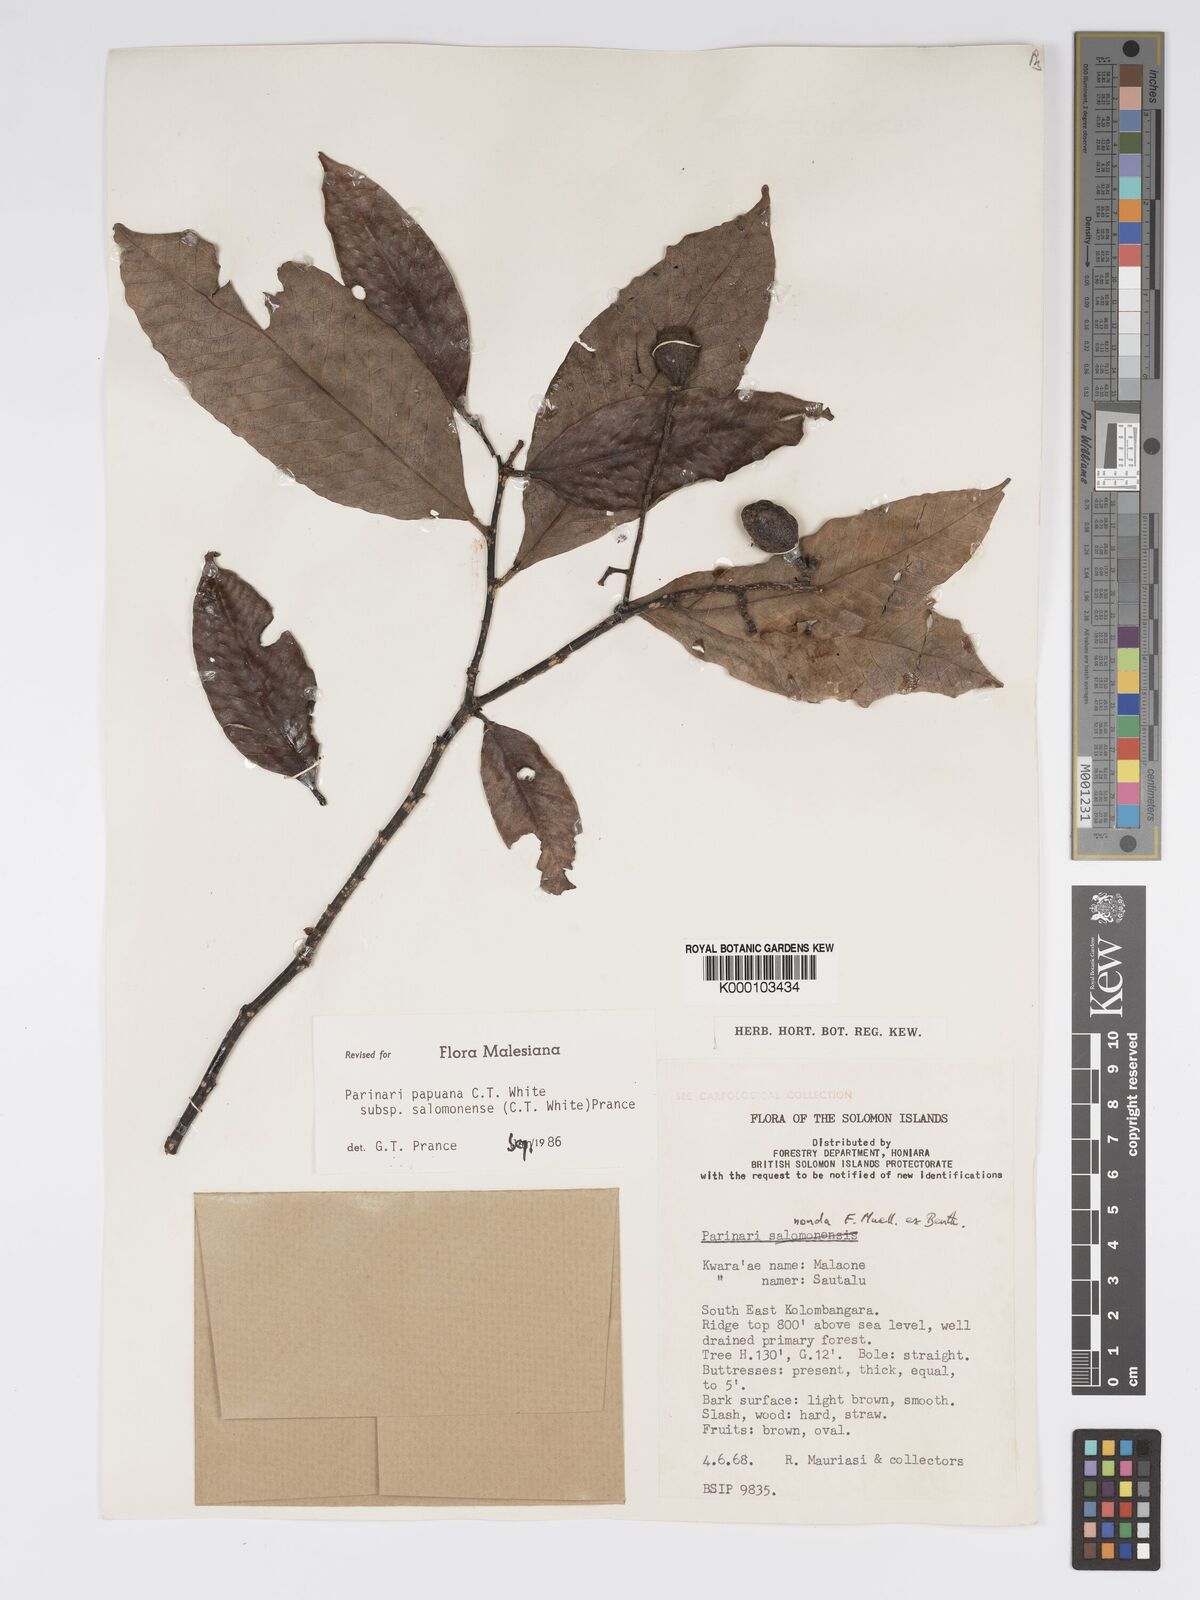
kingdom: Plantae
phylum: Tracheophyta
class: Magnoliopsida
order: Malpighiales
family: Chrysobalanaceae
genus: Parinari
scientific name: Parinari papuana
